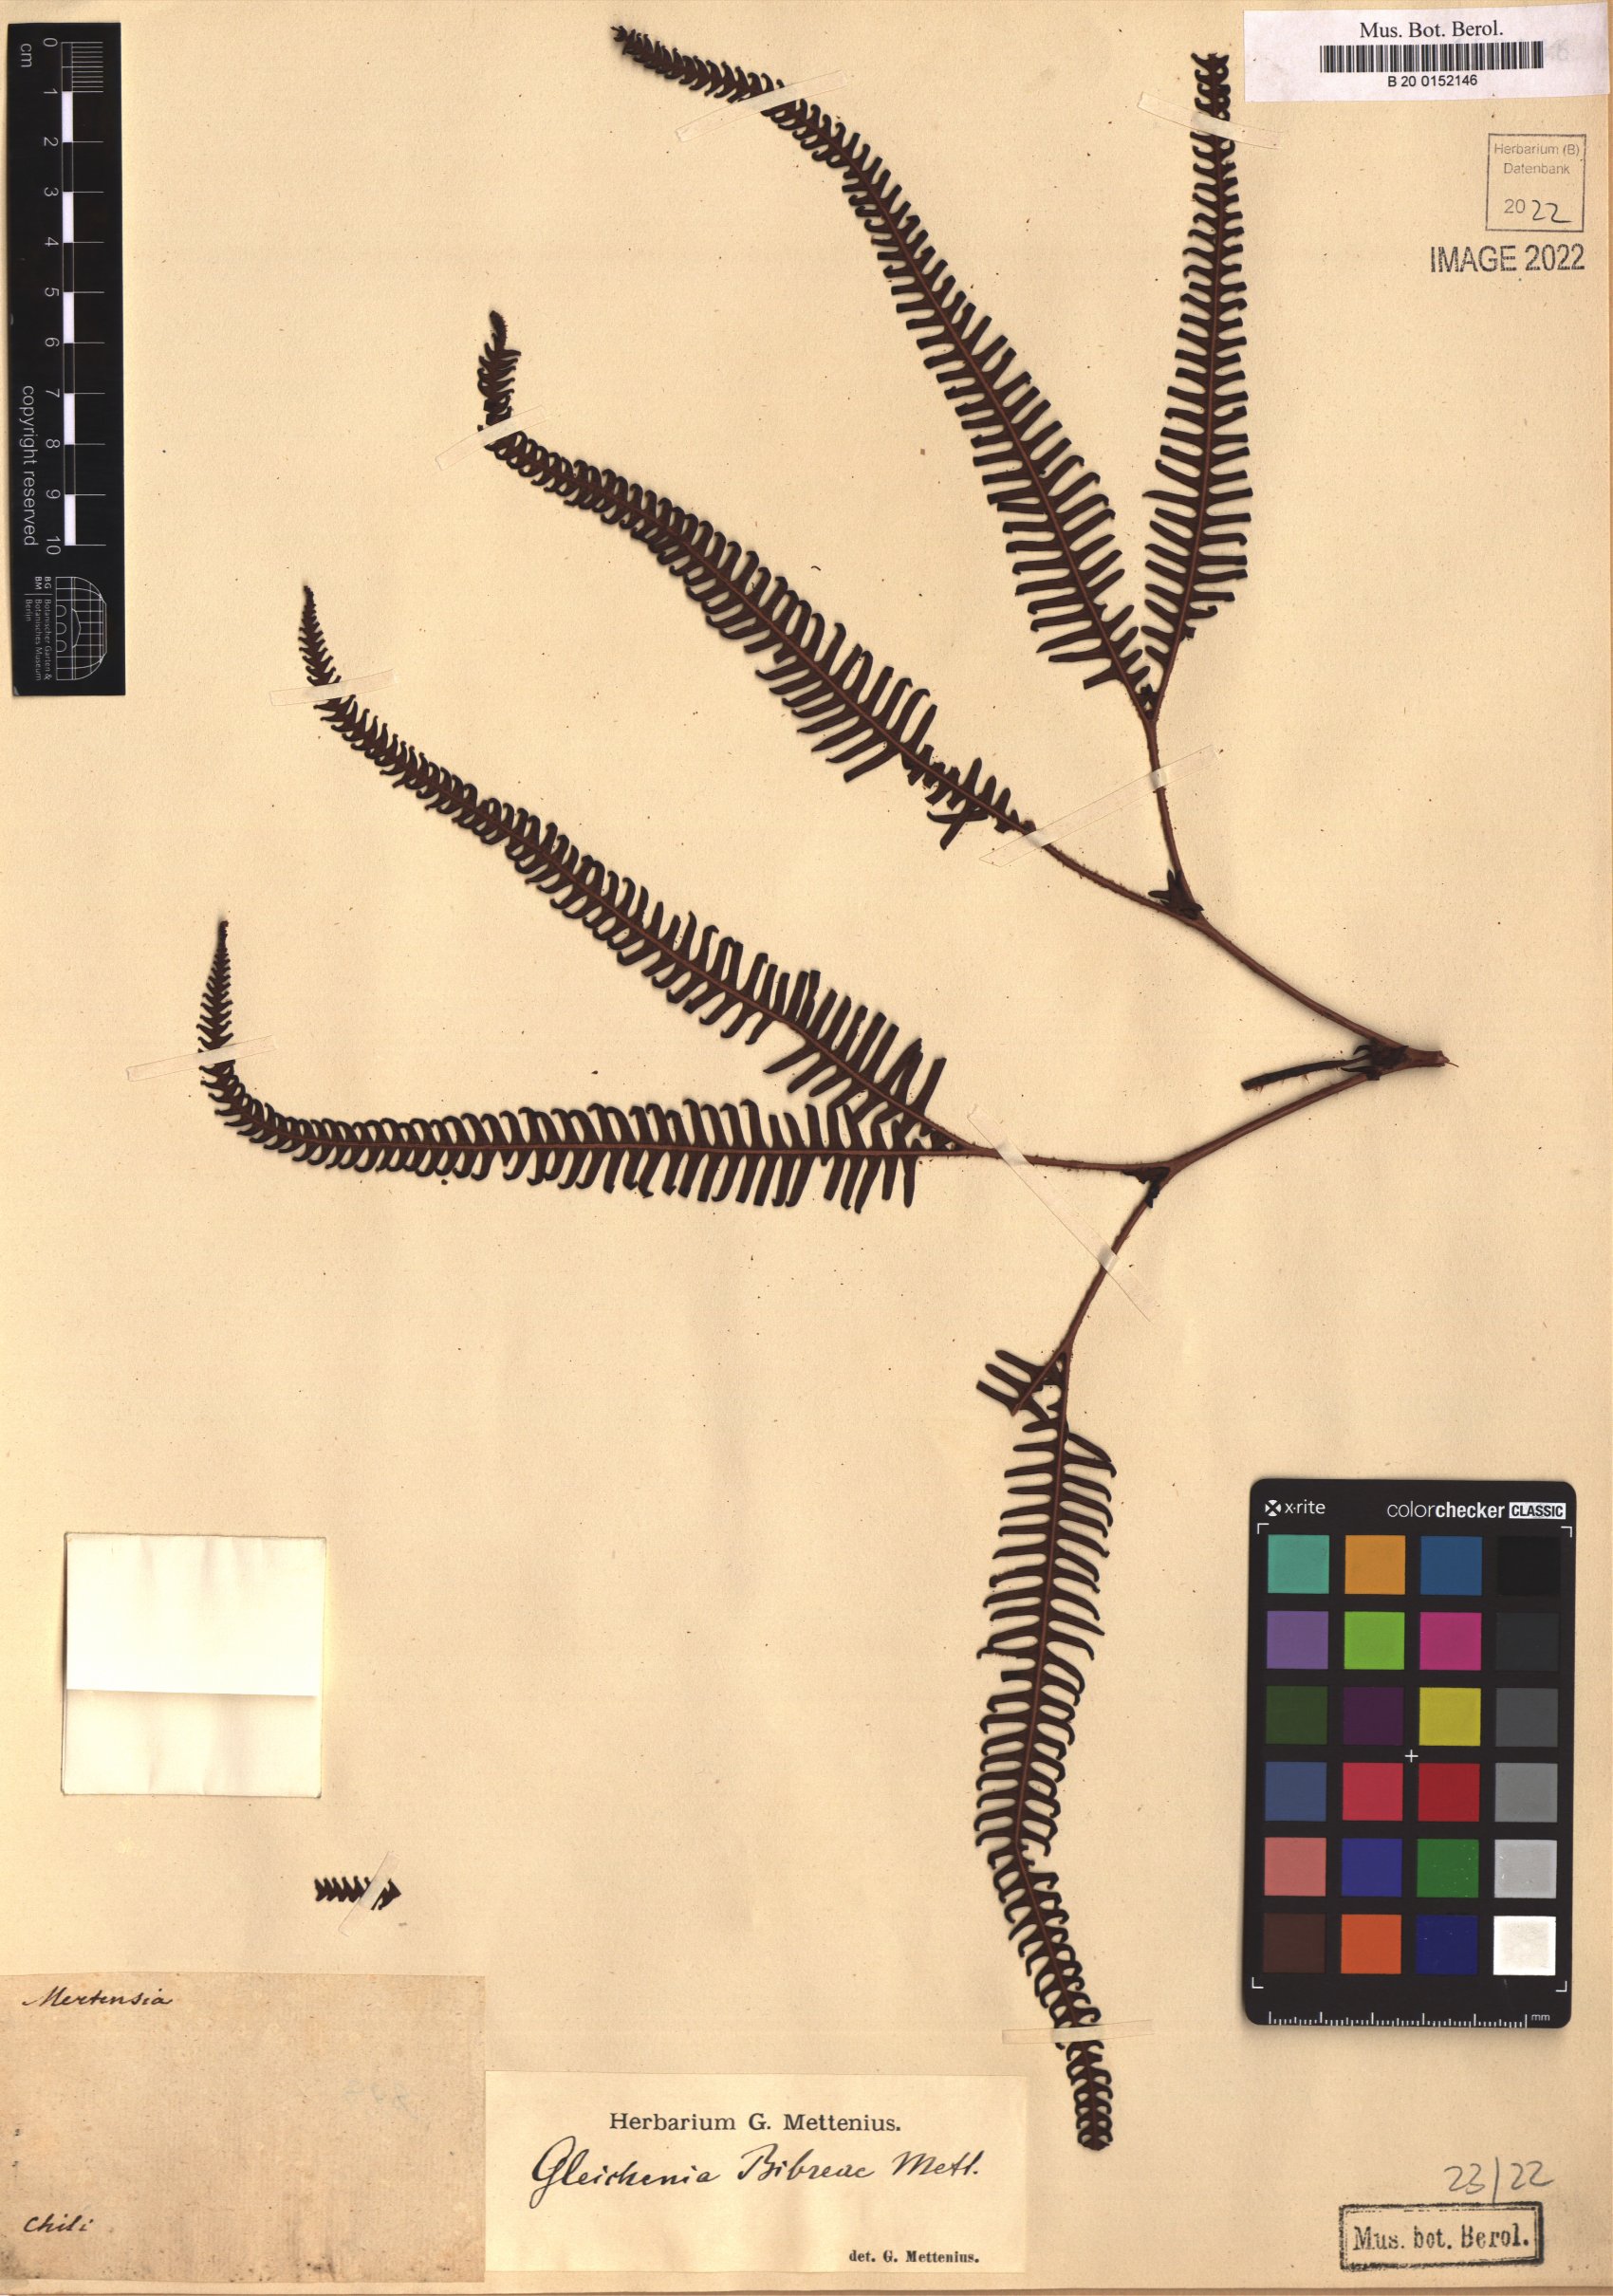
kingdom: Plantae
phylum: Tracheophyta
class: Polypodiopsida
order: Gleicheniales
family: Gleicheniaceae
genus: Sticherus
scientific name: Sticherus quadripartitus
